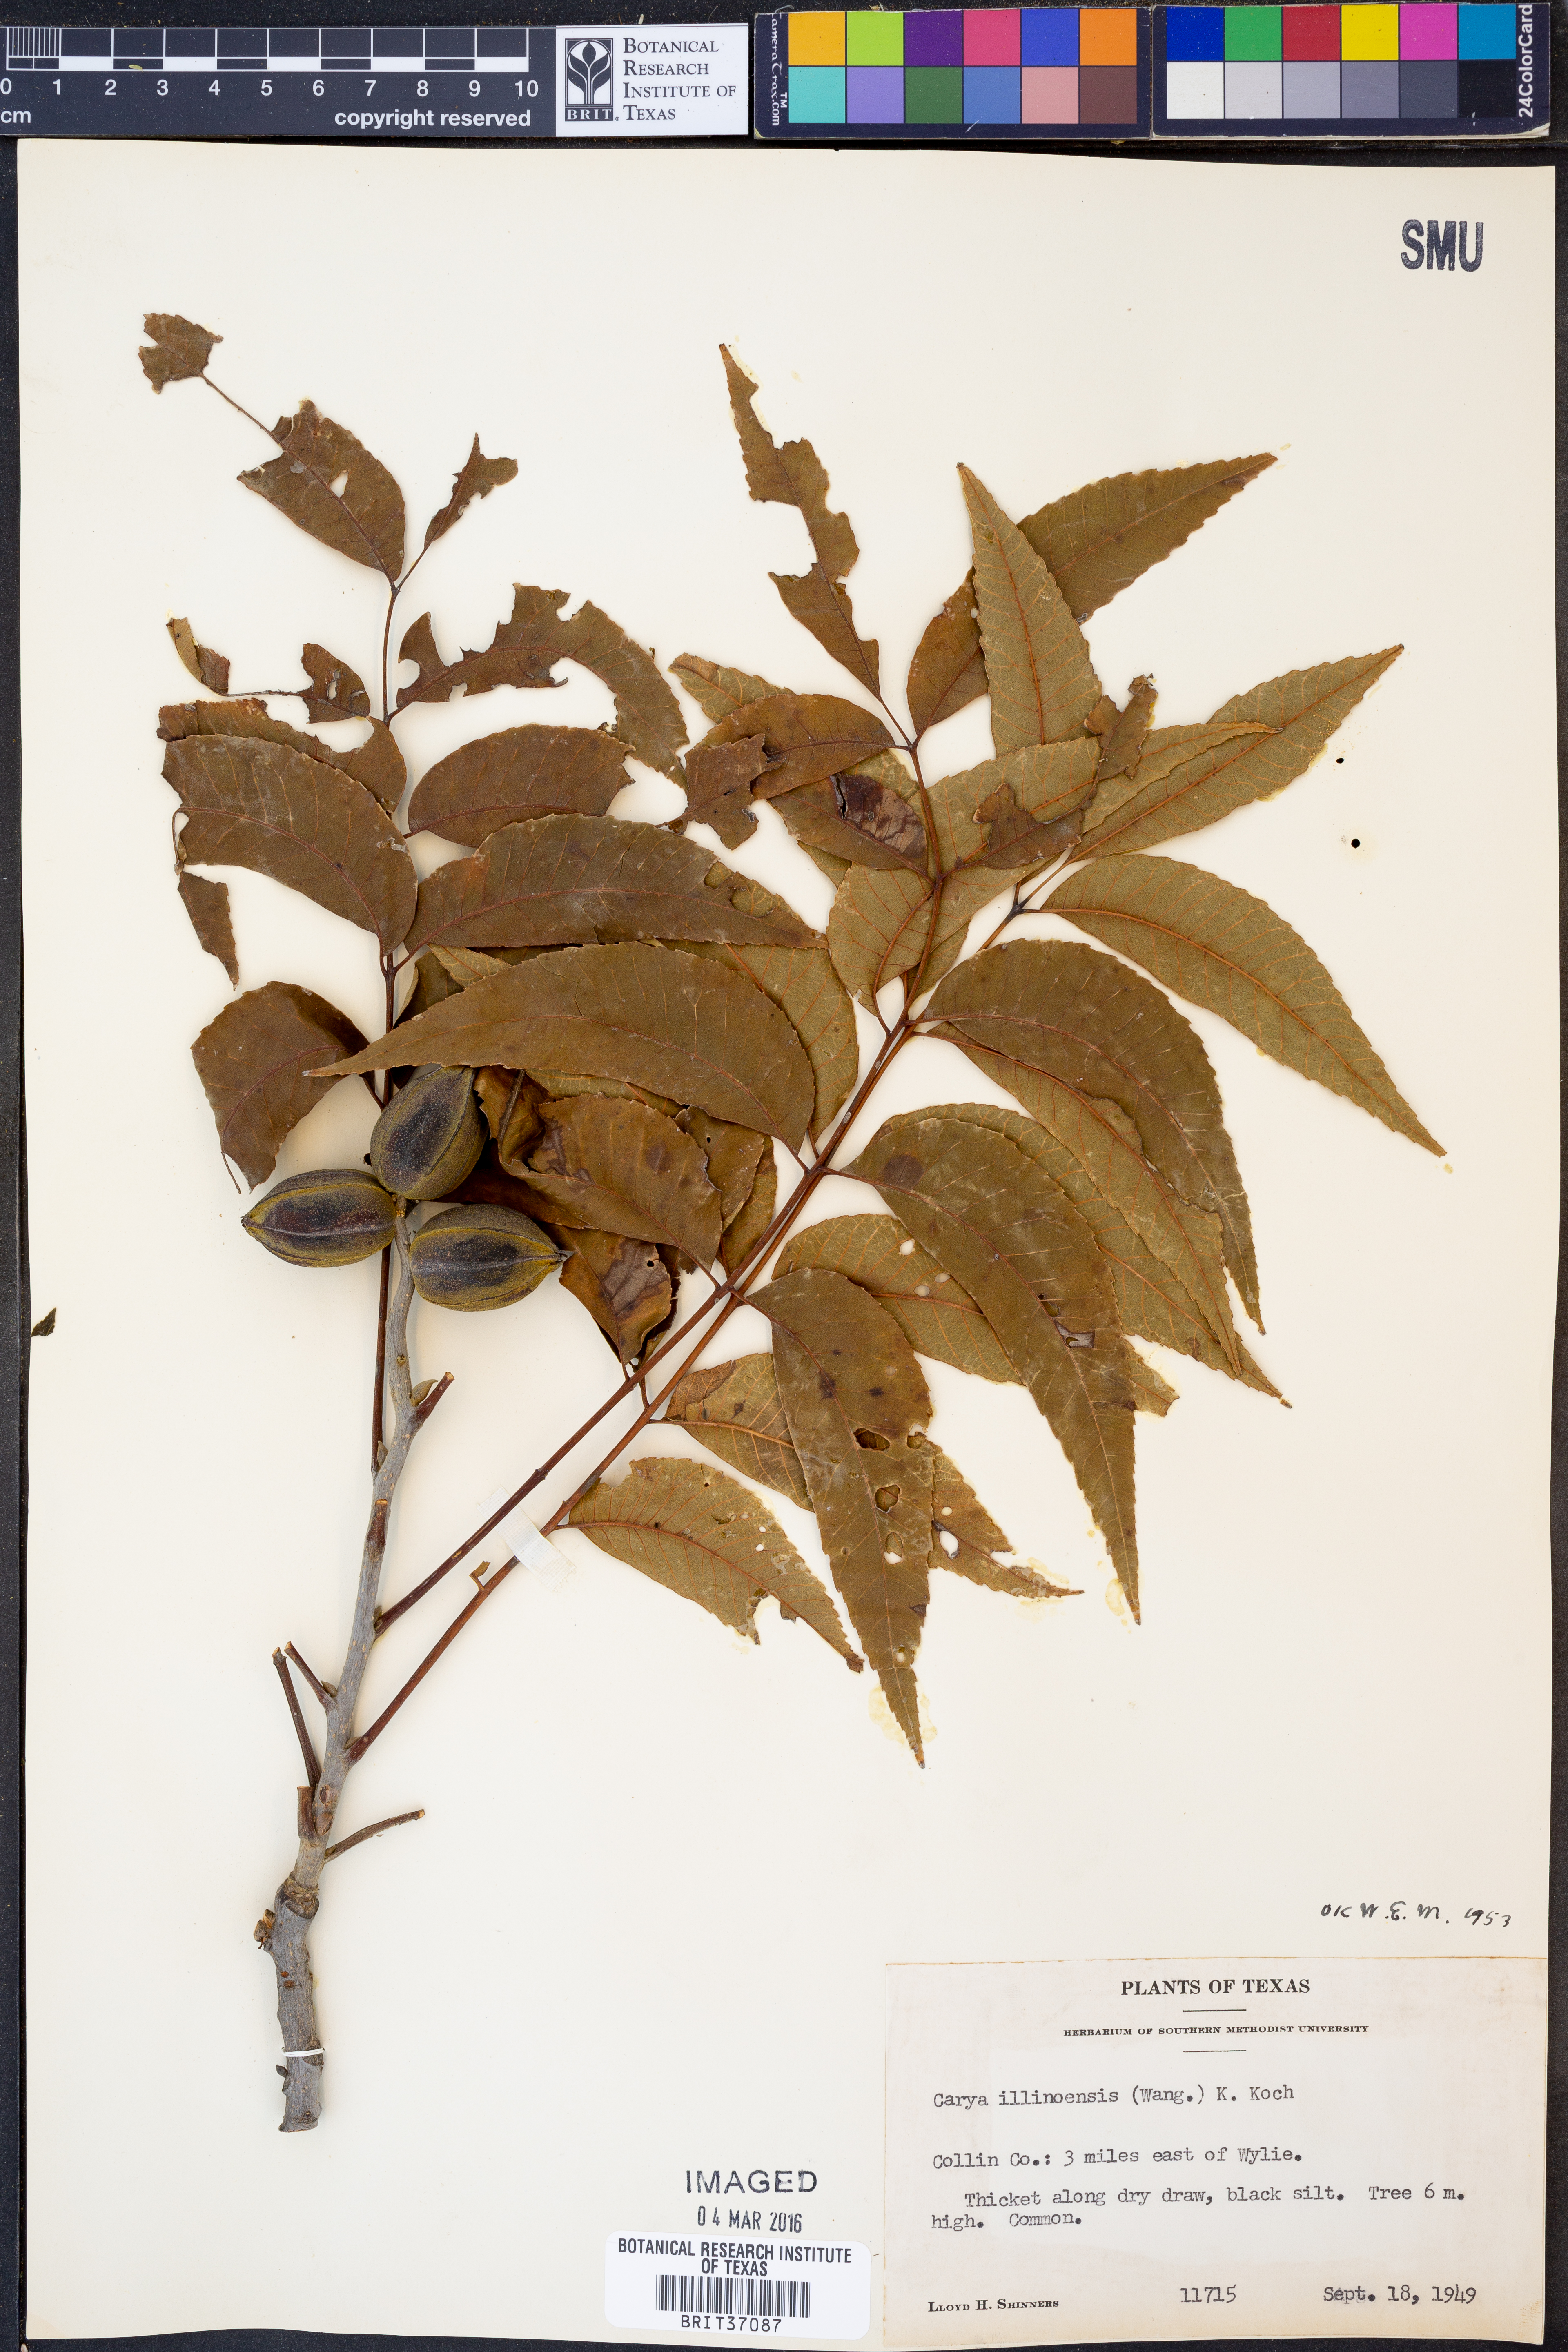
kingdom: Plantae
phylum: Tracheophyta
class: Magnoliopsida
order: Fagales
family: Juglandaceae
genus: Carya
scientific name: Carya
